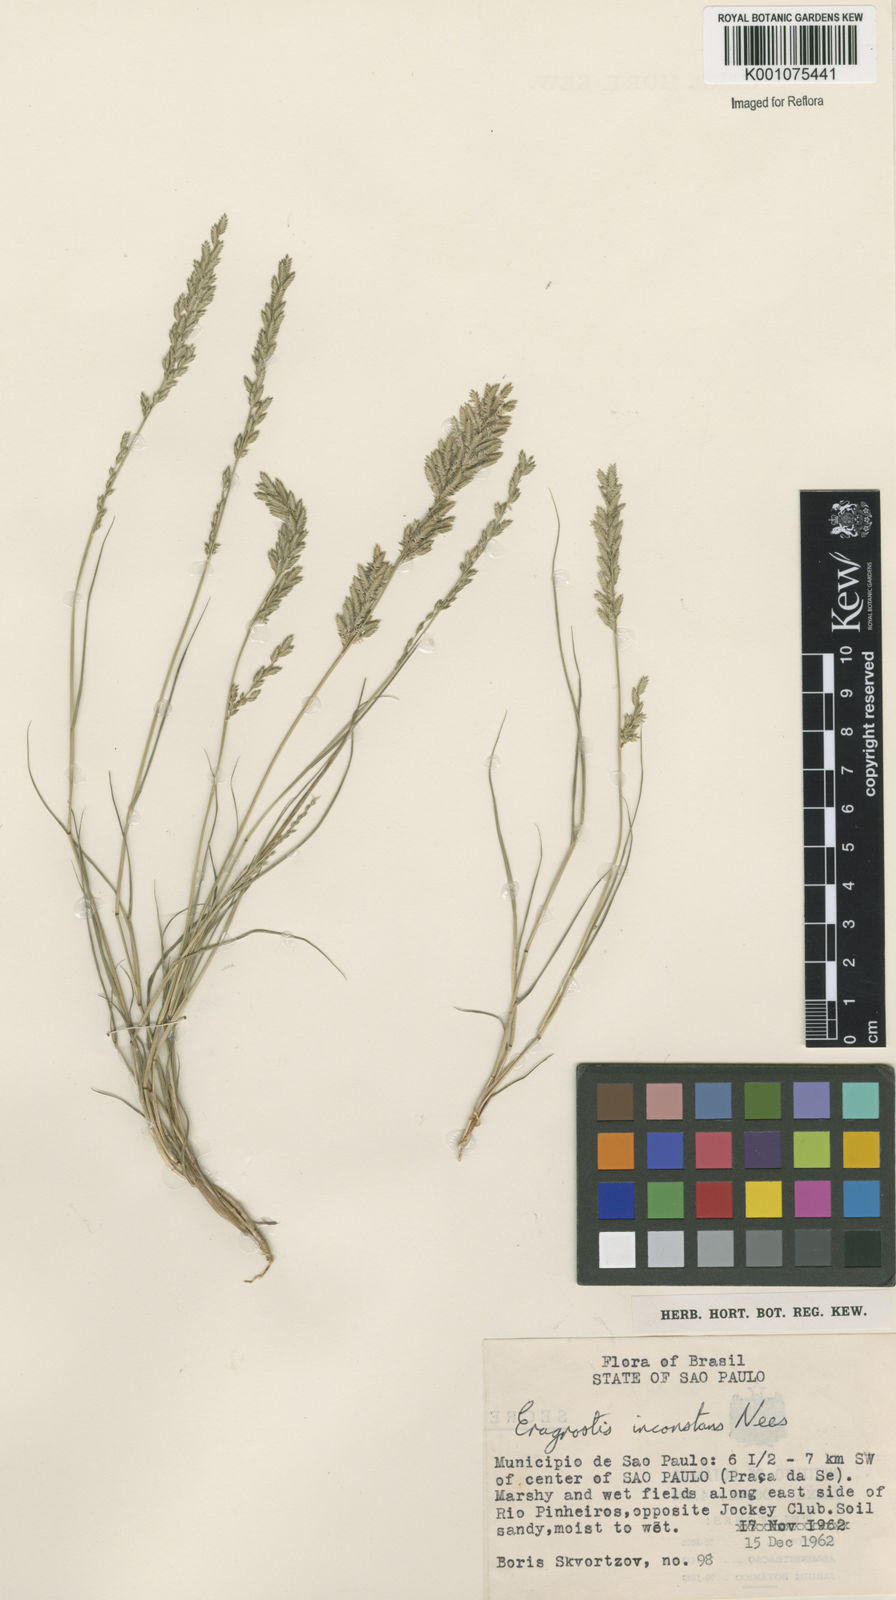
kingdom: Plantae
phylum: Tracheophyta
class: Liliopsida
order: Poales
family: Poaceae
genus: Eragrostis
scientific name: Eragrostis rufescens
